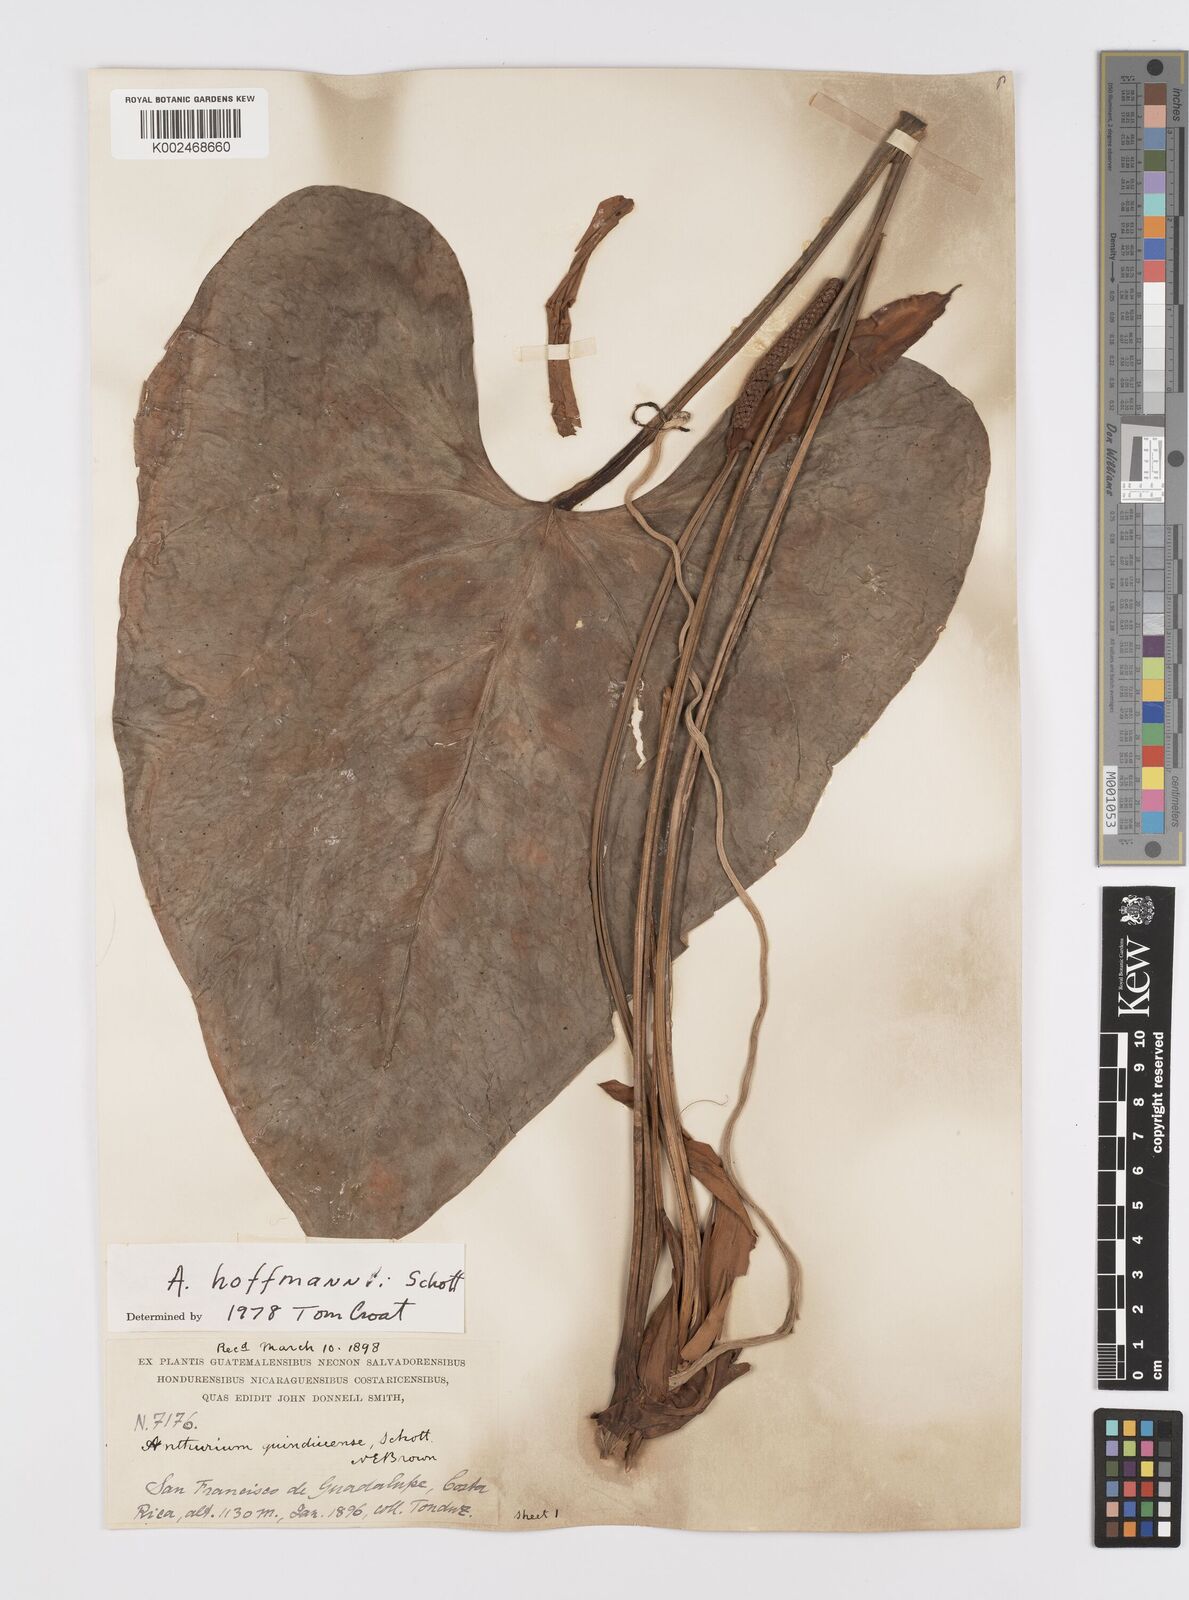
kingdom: Plantae
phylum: Tracheophyta
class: Liliopsida
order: Alismatales
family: Araceae
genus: Anthurium
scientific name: Anthurium hoffmannii
